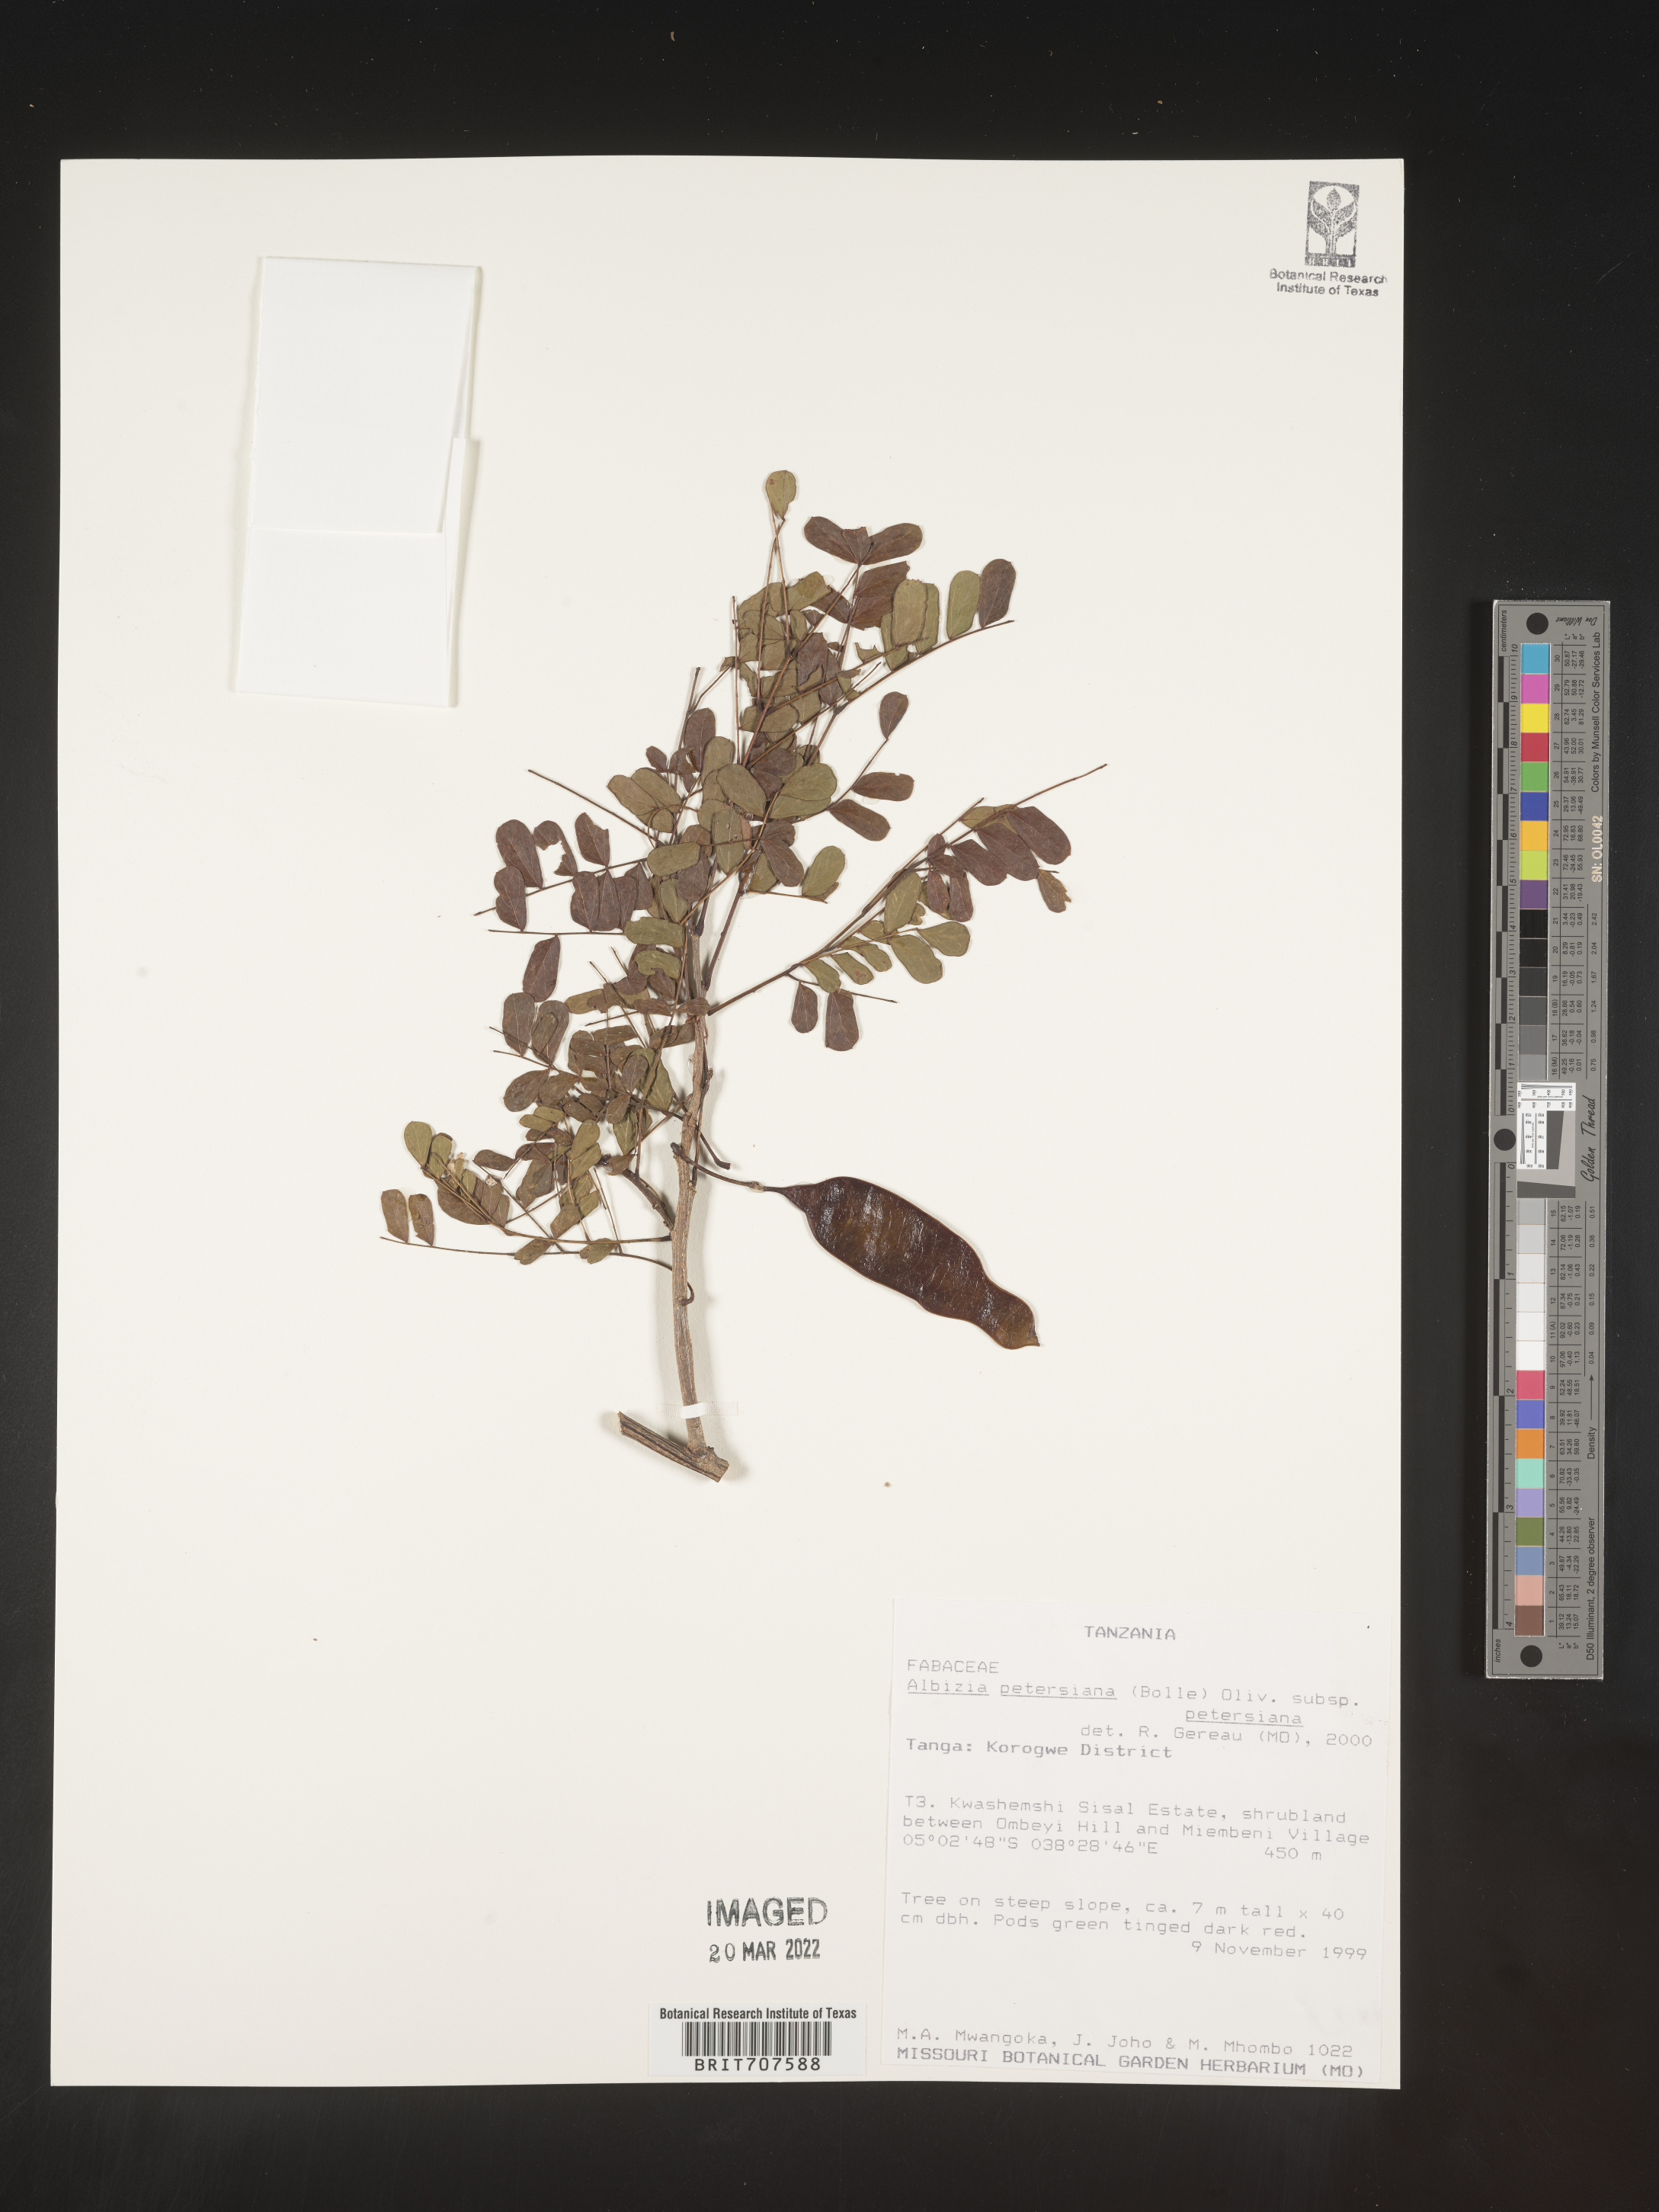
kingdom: Plantae
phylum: Tracheophyta
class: Magnoliopsida
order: Fabales
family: Fabaceae
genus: Albizia
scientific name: Albizia
